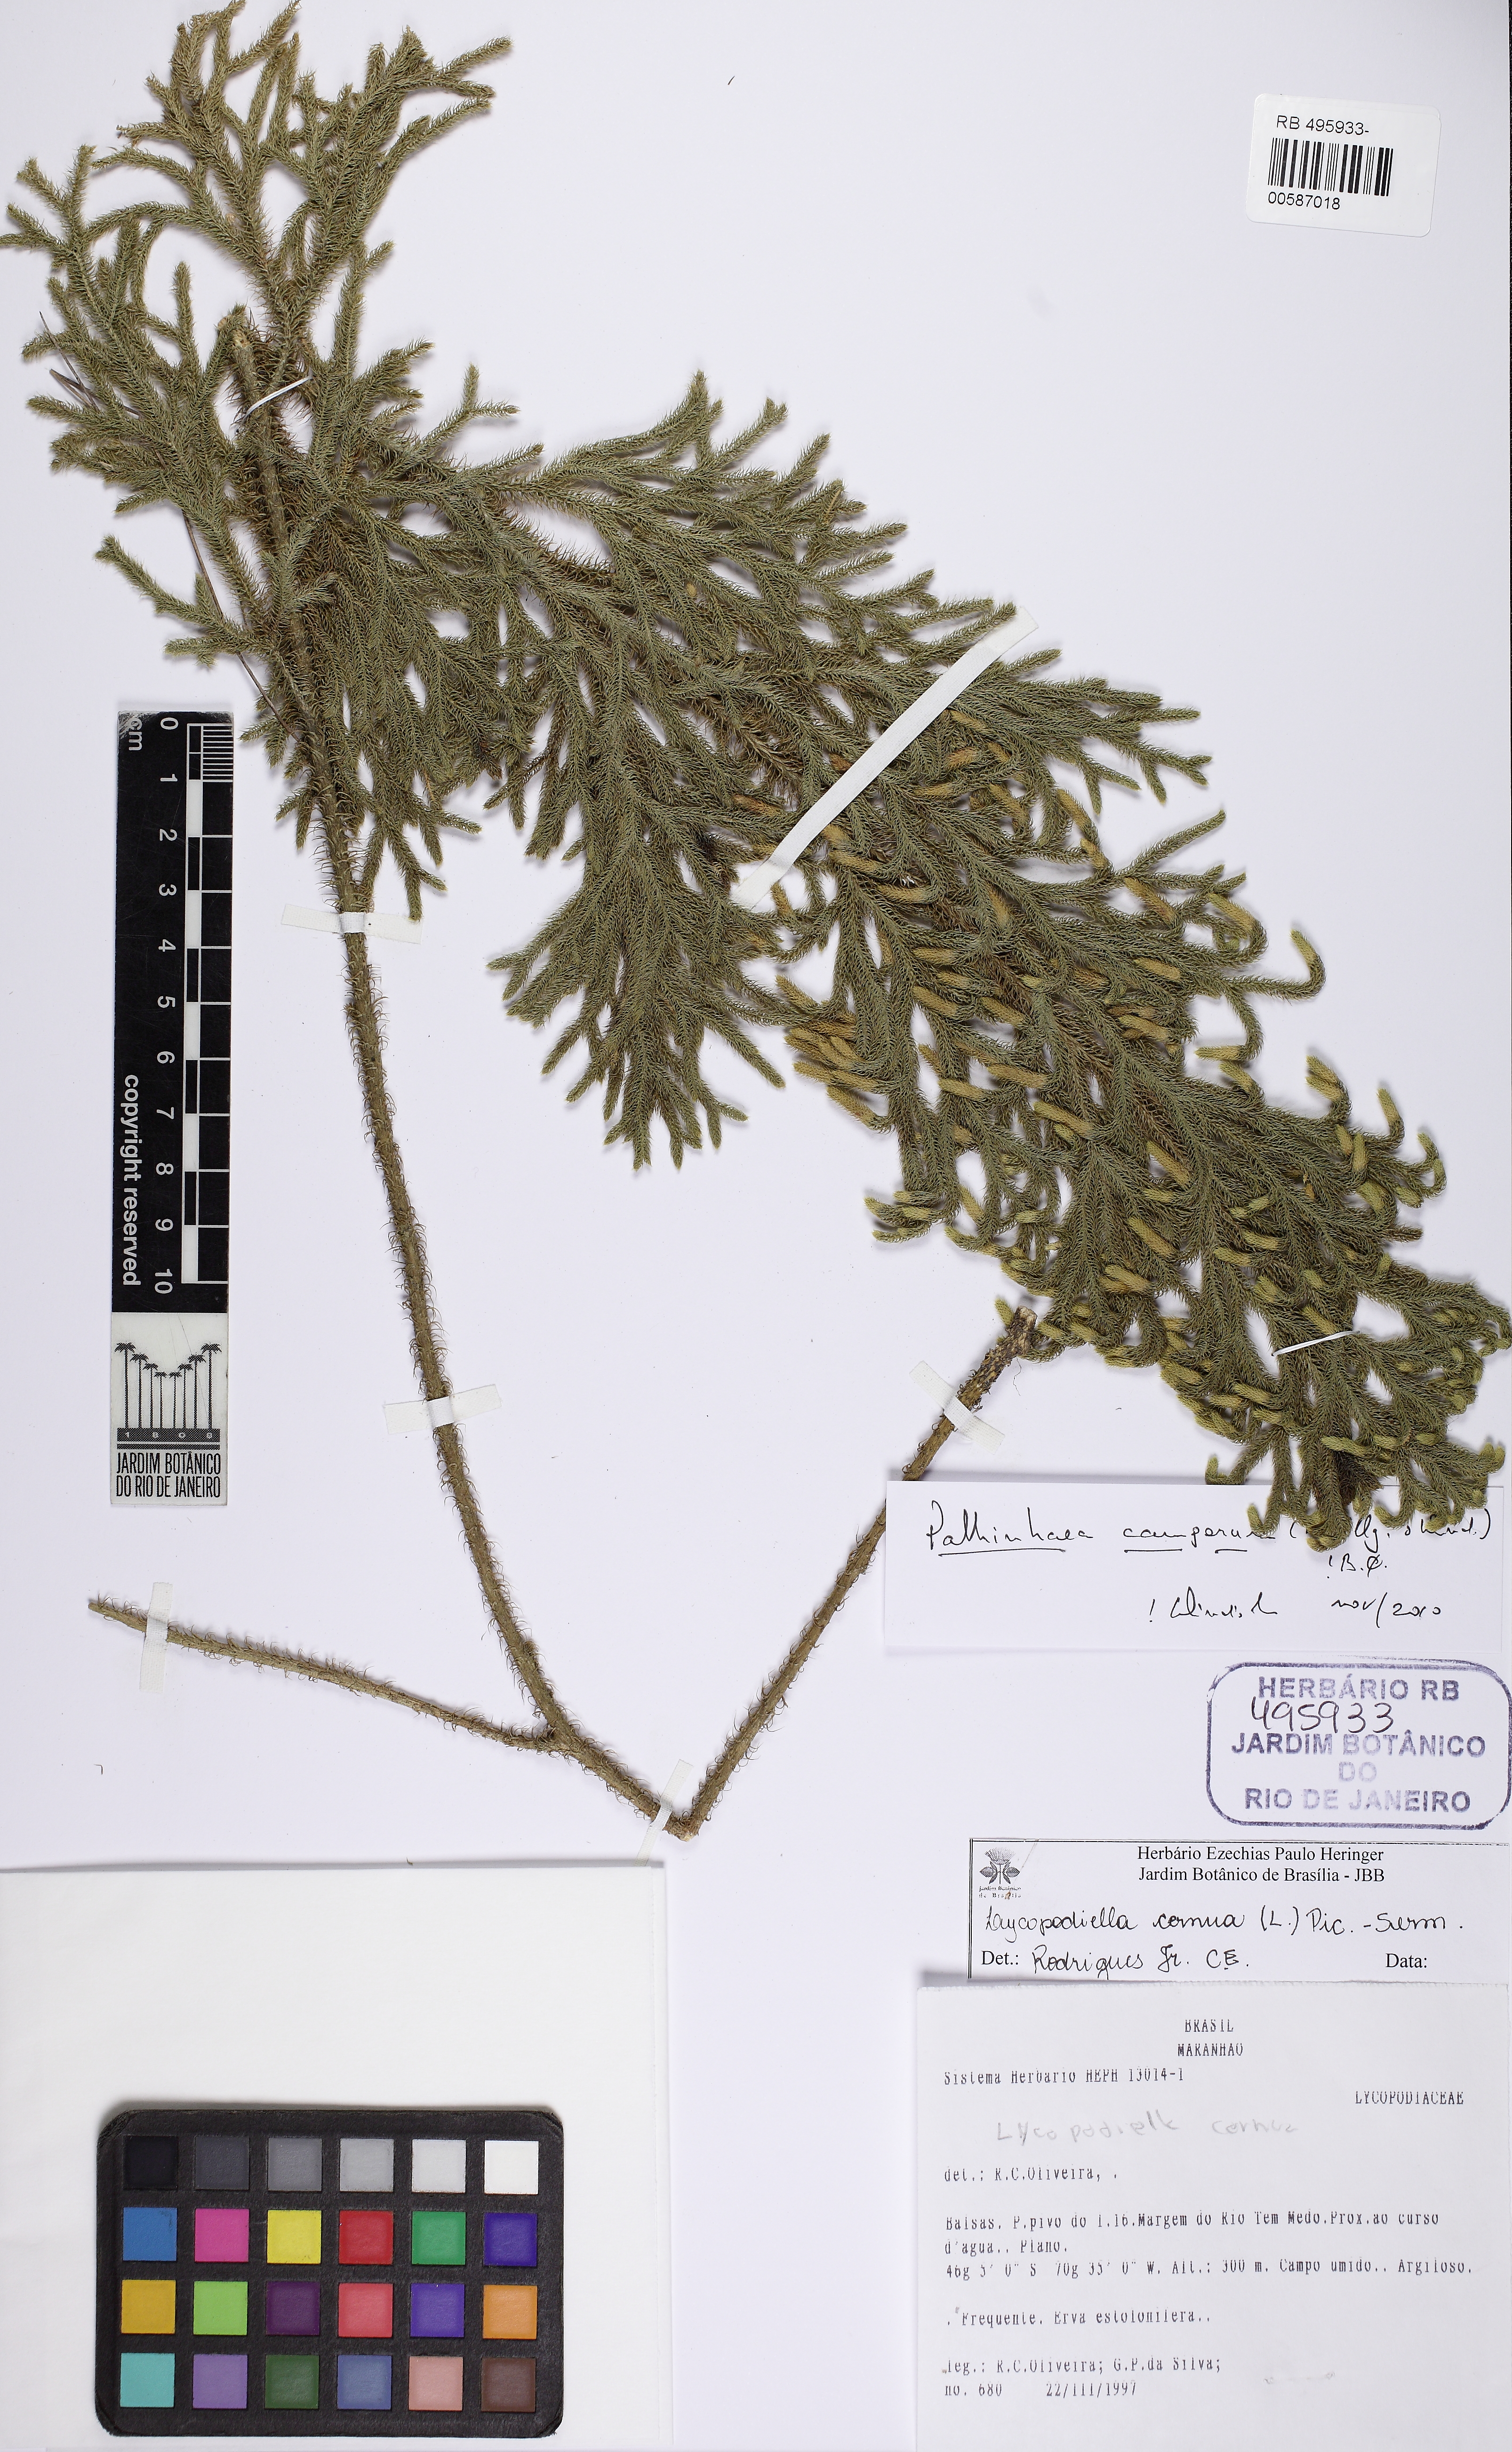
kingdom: Plantae
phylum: Tracheophyta
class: Lycopodiopsida
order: Lycopodiales
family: Lycopodiaceae
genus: Palhinhaea
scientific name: Palhinhaea camporum
